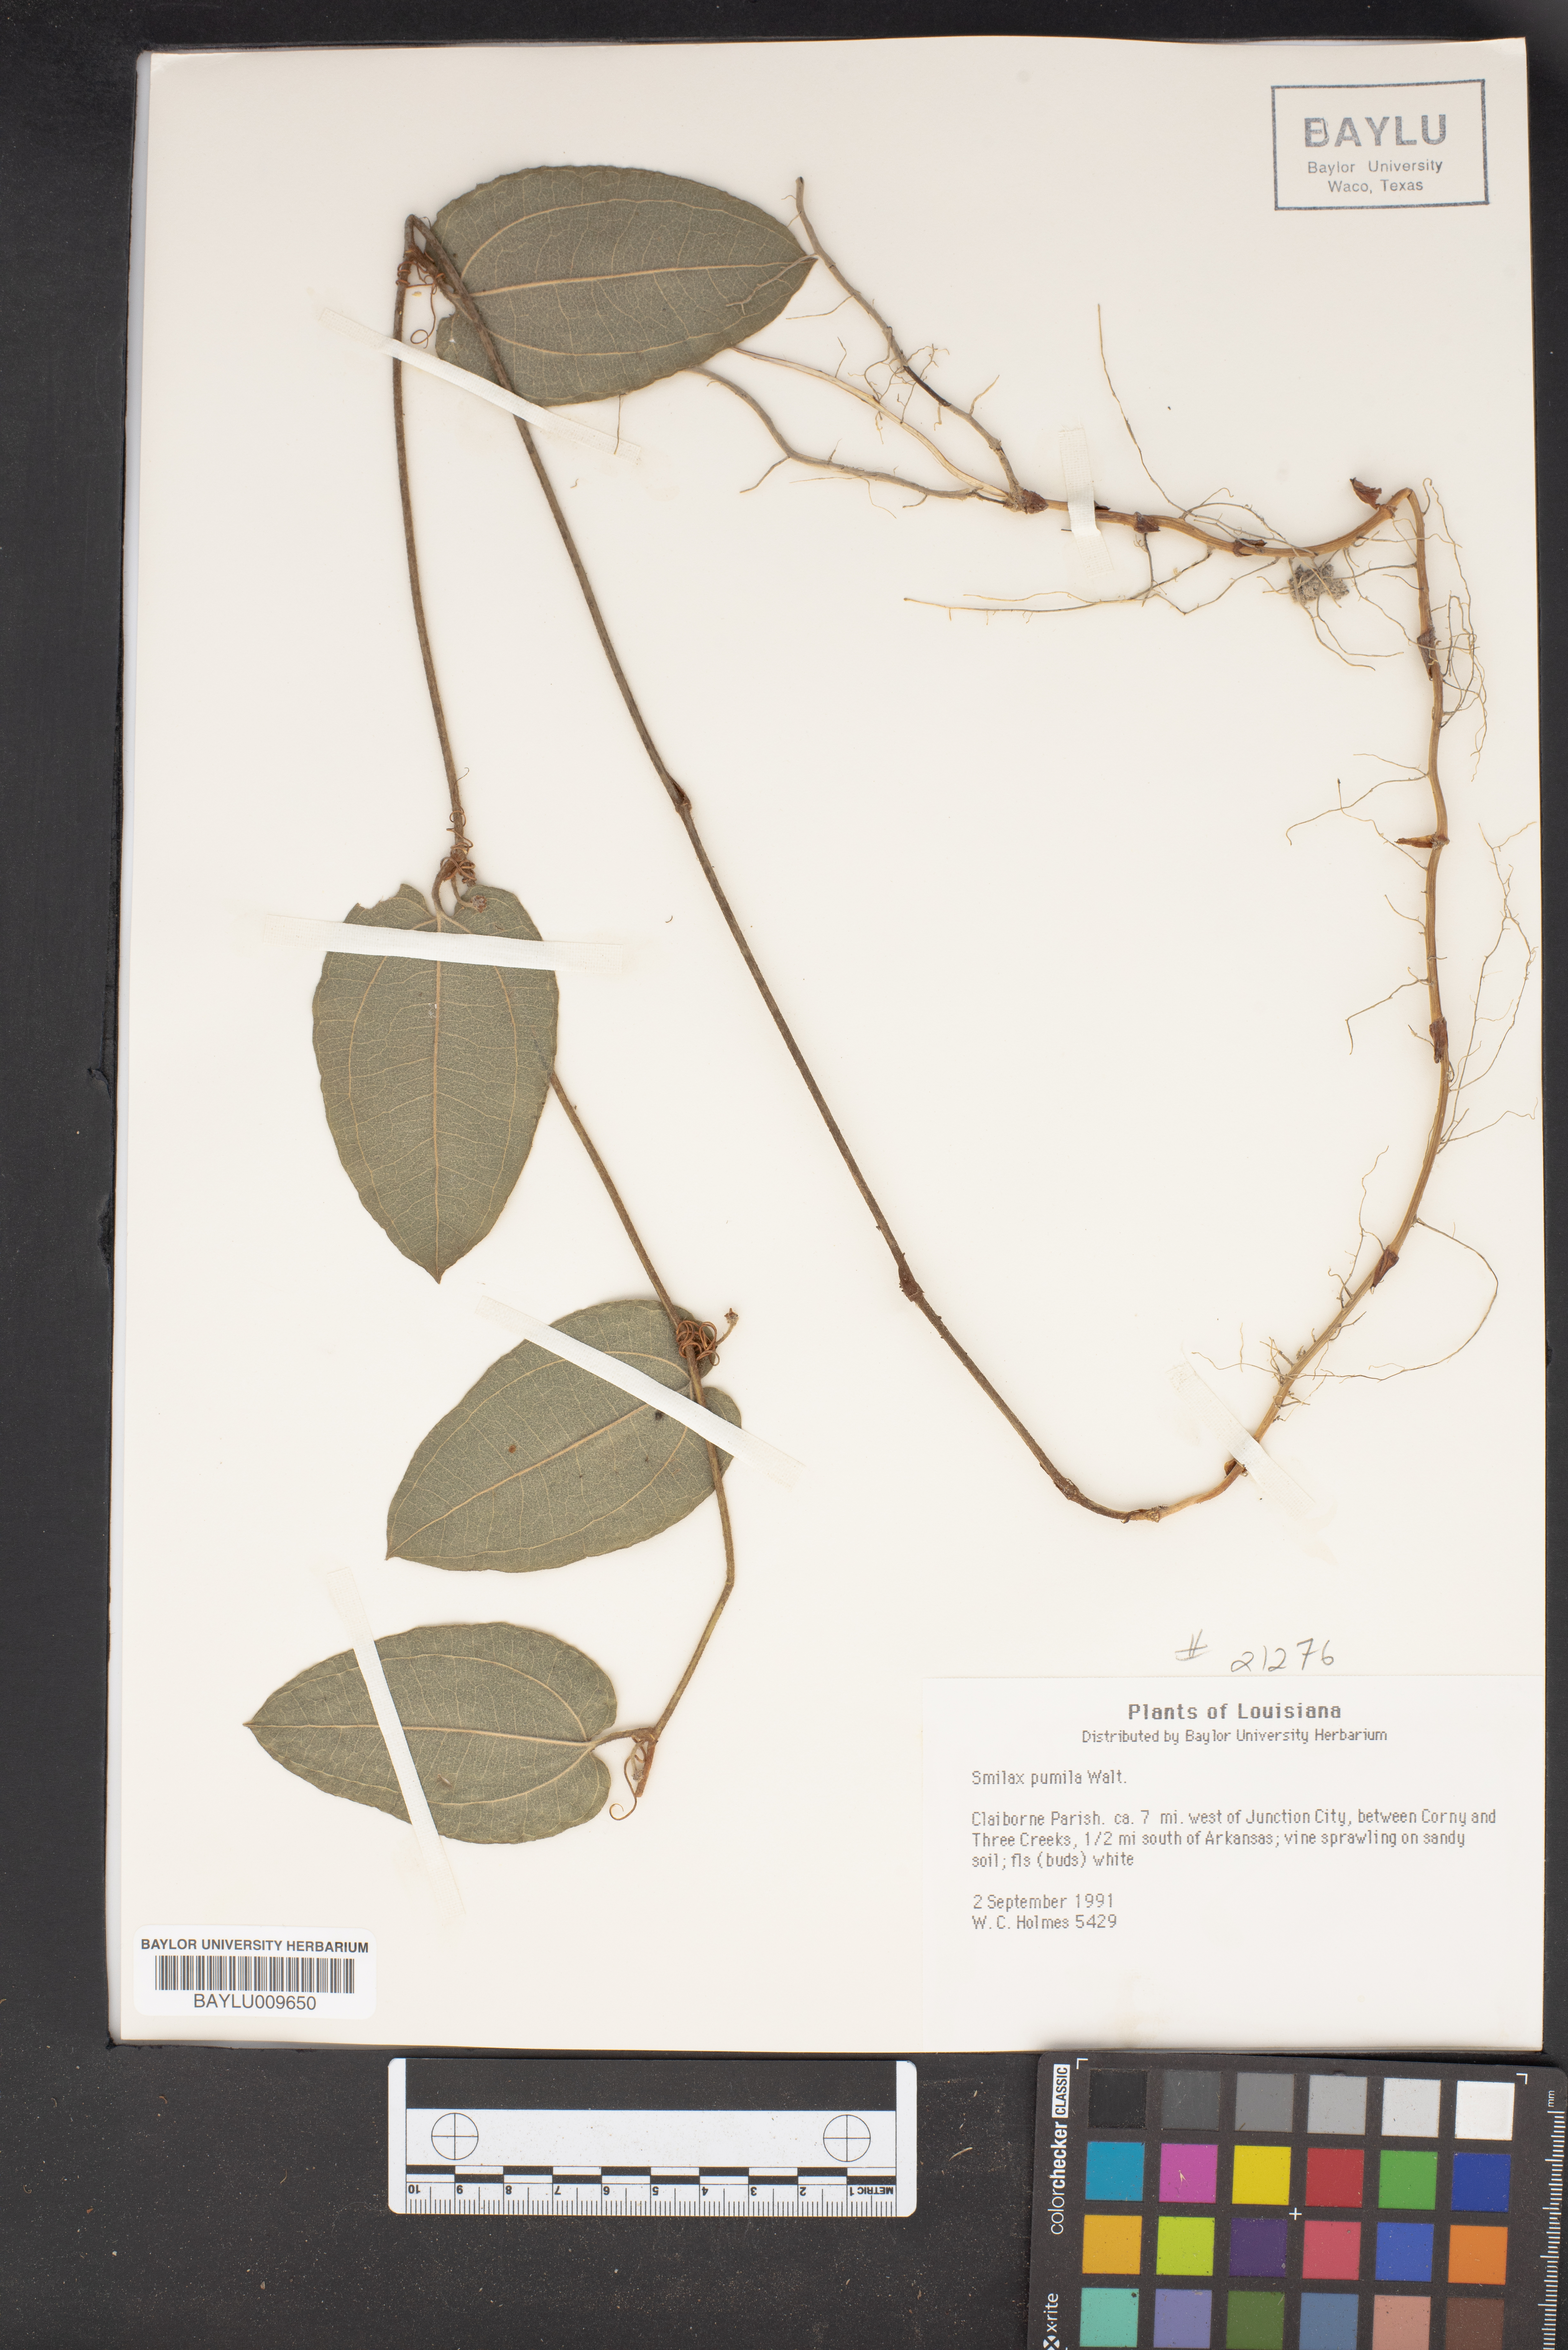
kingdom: Plantae
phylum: Tracheophyta
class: Liliopsida
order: Liliales
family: Smilacaceae
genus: Smilax
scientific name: Smilax pumila
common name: Sarsaparilla-vine
